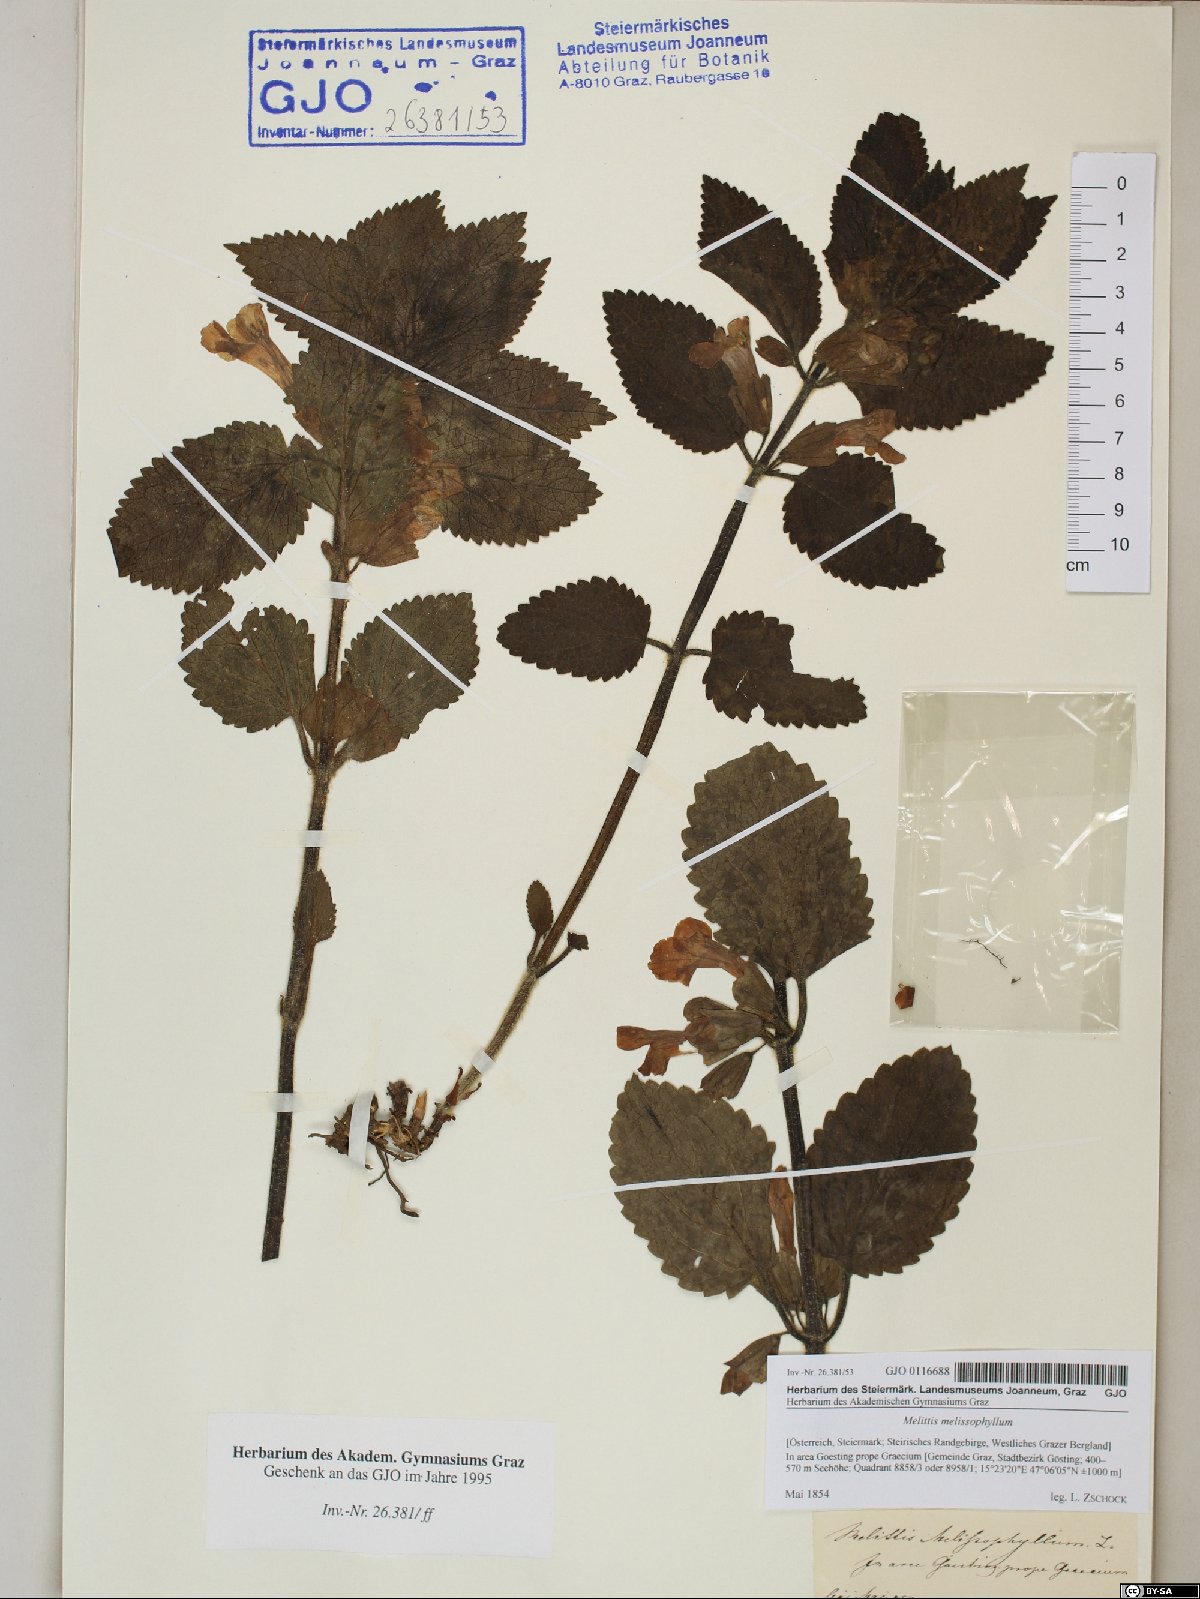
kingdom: Plantae
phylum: Tracheophyta
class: Magnoliopsida
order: Lamiales
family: Lamiaceae
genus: Melittis
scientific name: Melittis melissophyllum
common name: Bastard balm
